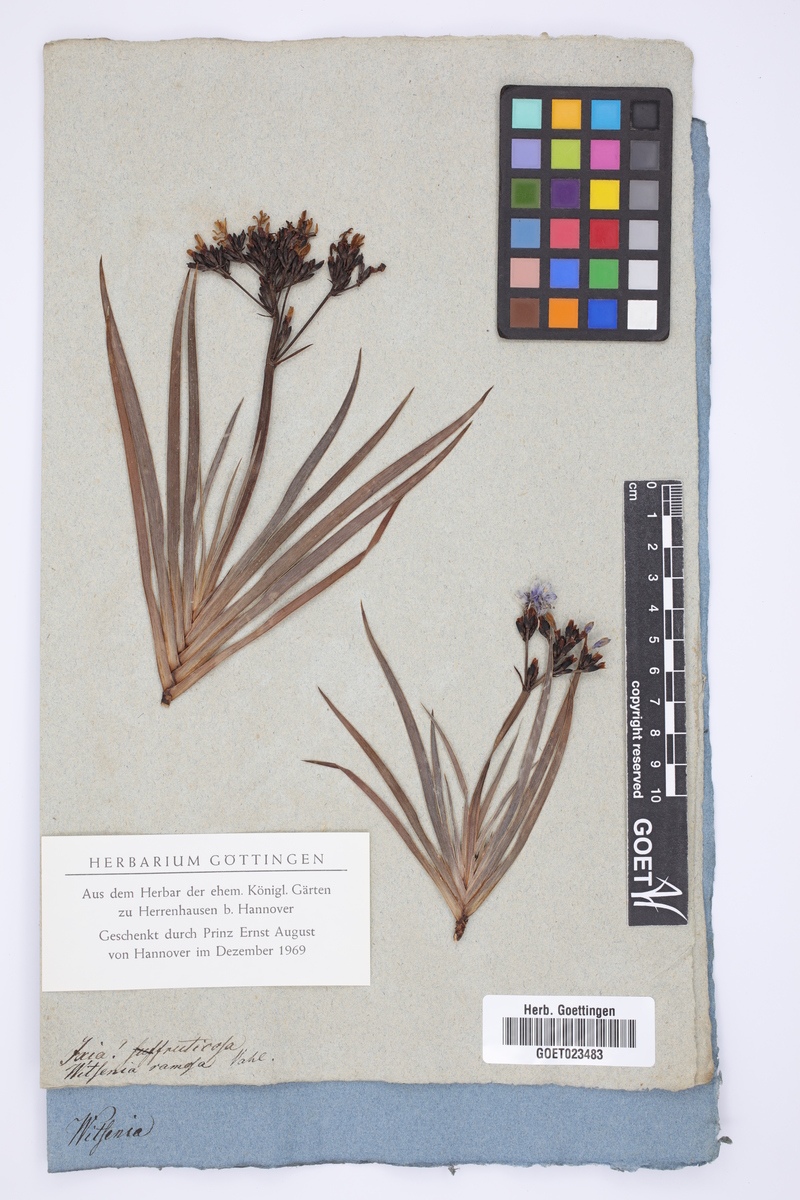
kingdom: Plantae
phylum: Tracheophyta
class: Liliopsida
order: Asparagales
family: Iridaceae
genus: Nivenia
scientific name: Nivenia fruticosa
